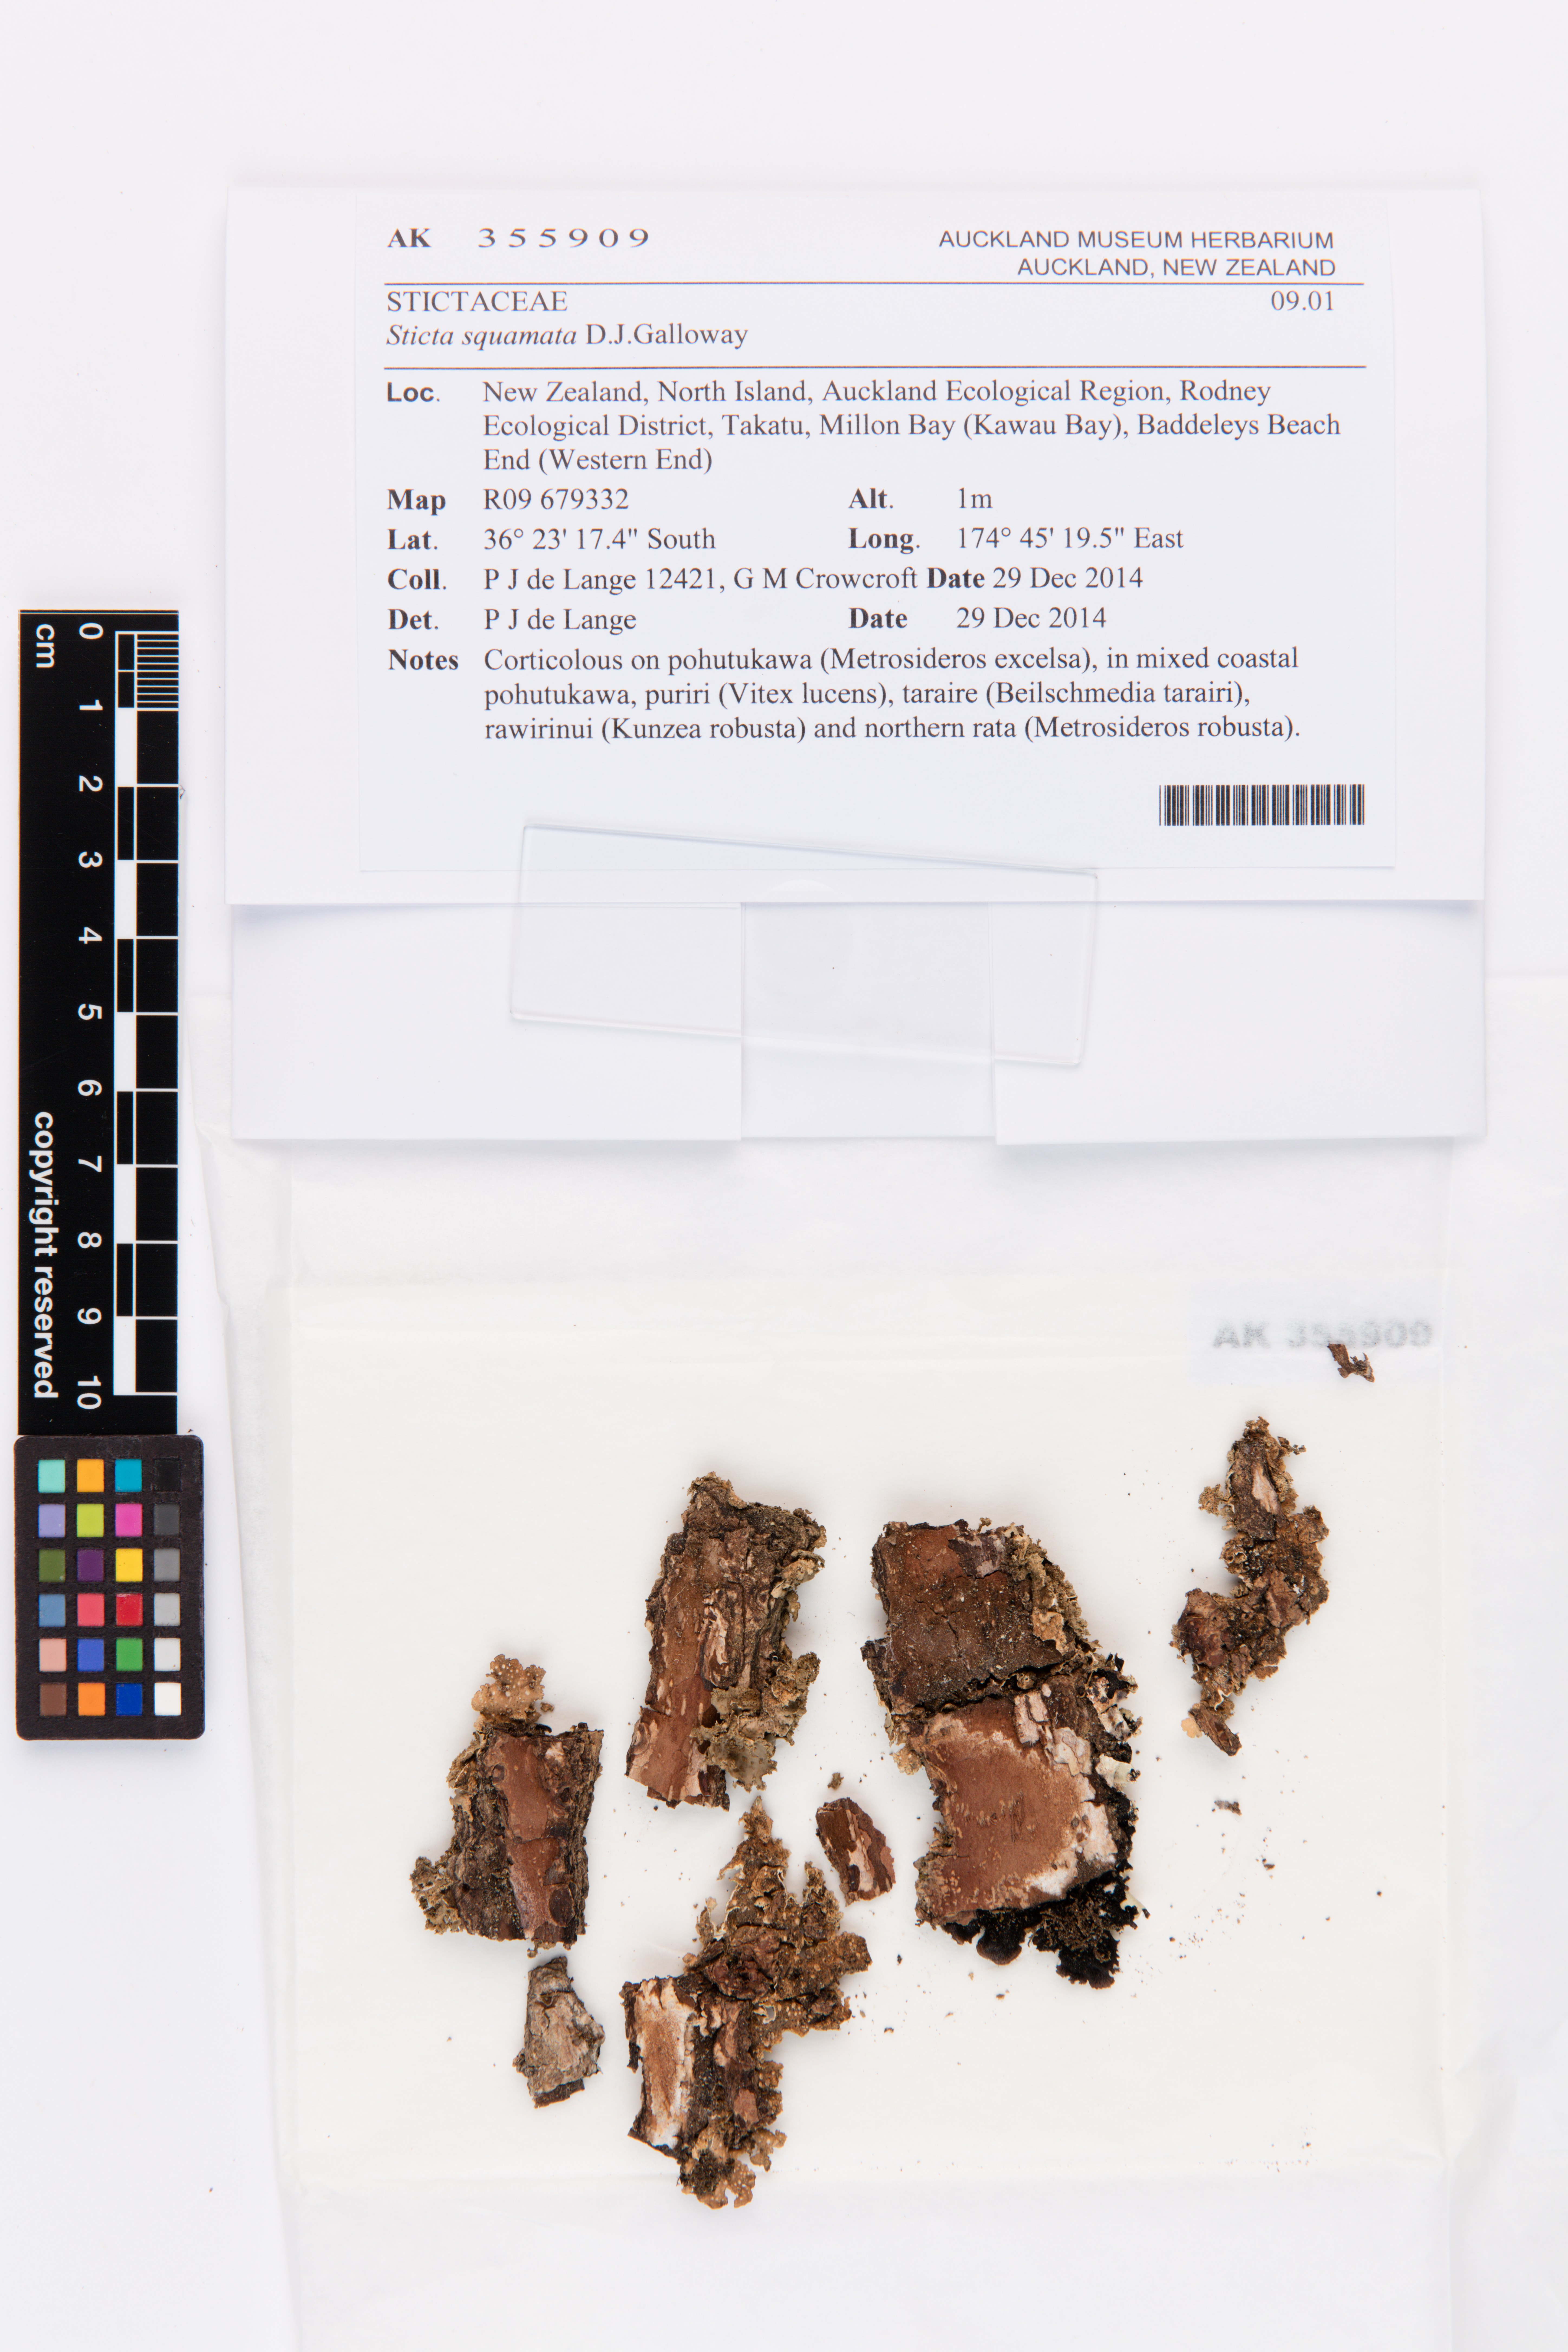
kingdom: Fungi
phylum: Ascomycota
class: Lecanoromycetes
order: Peltigerales
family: Lobariaceae
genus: Sticta
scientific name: Sticta squamata
